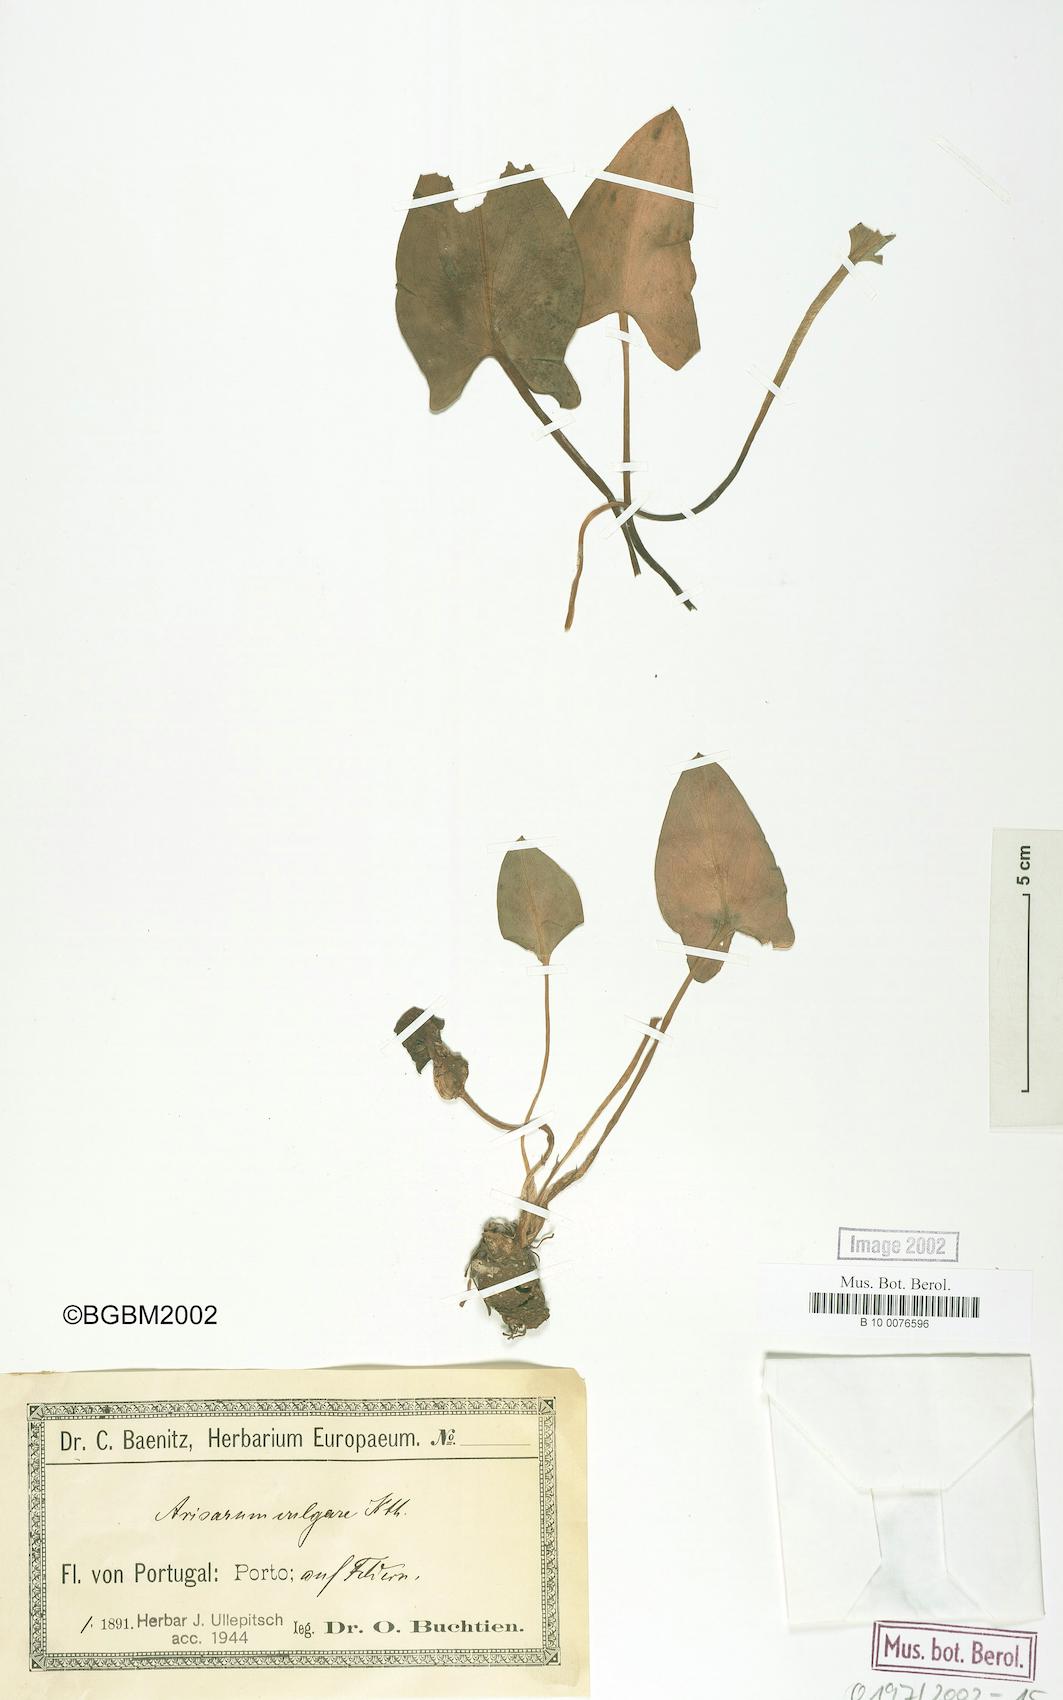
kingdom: Plantae
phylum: Tracheophyta
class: Liliopsida
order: Alismatales
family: Araceae
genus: Arisarum
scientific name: Arisarum vulgare
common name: Common arisarum
